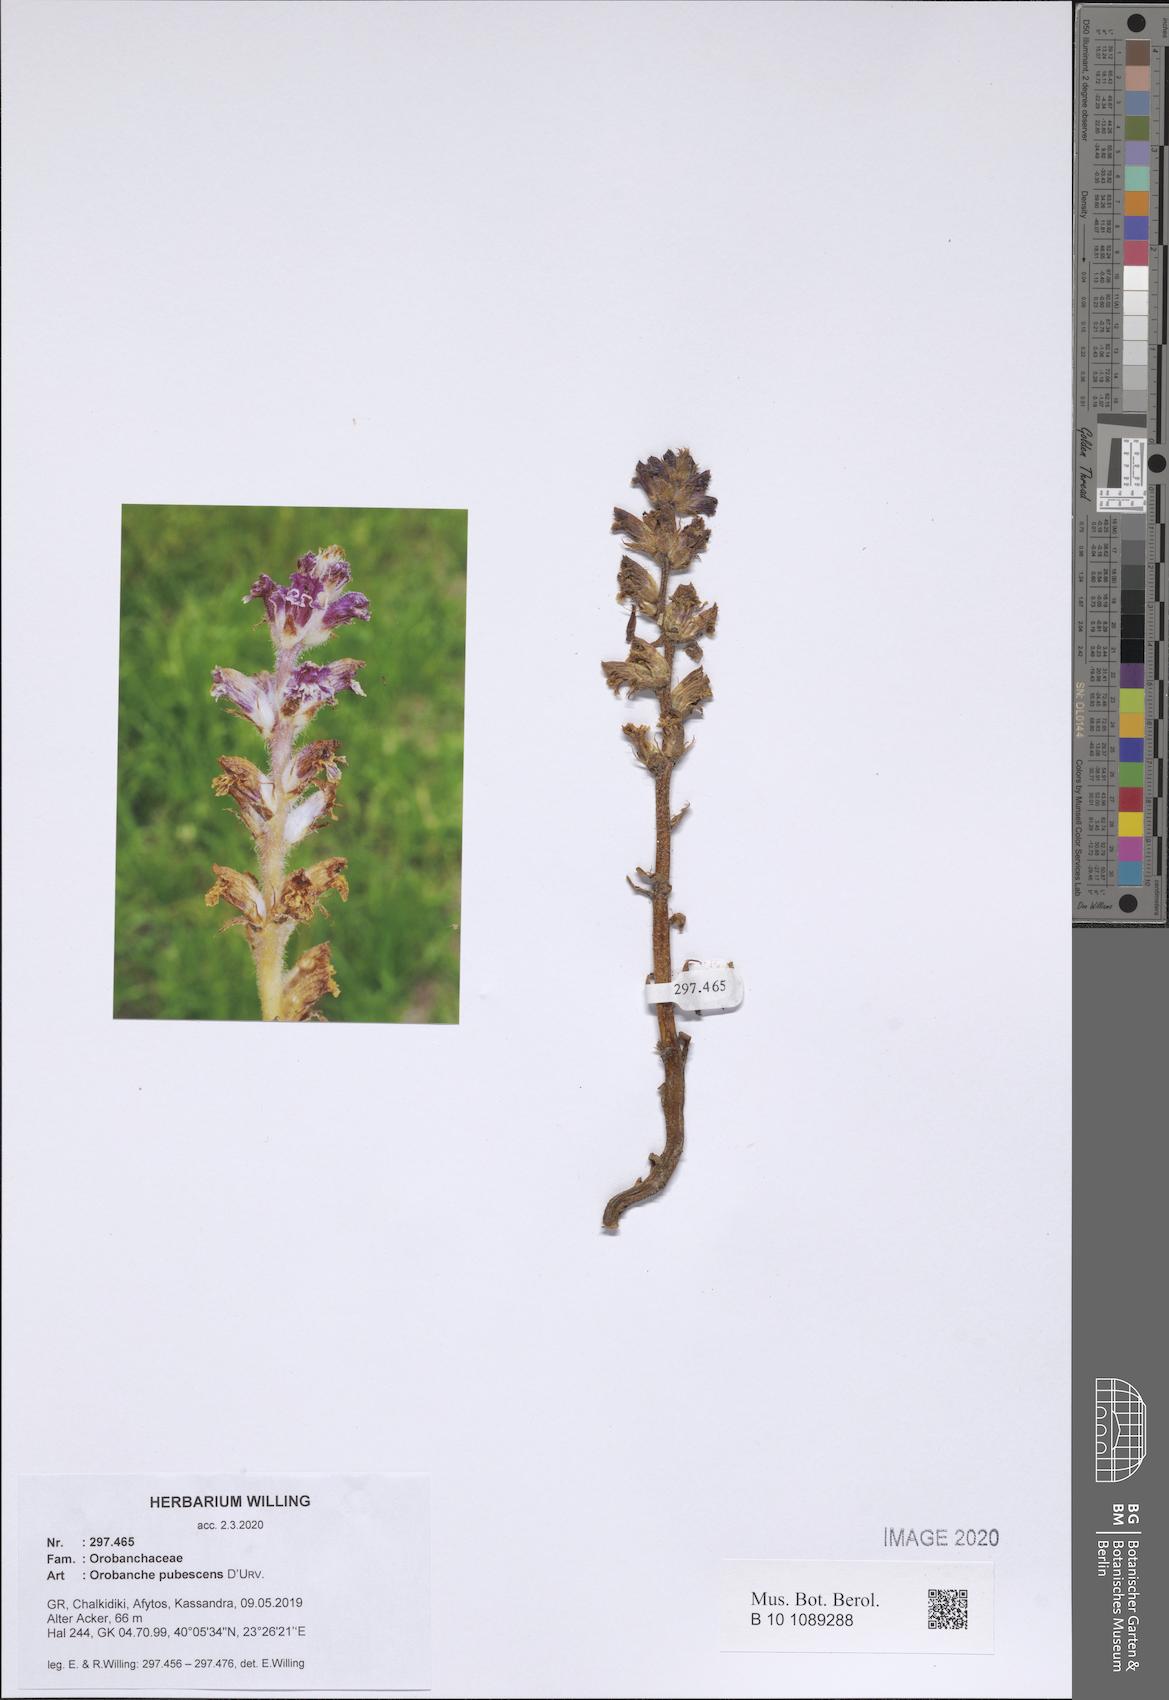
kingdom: Plantae
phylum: Tracheophyta
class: Magnoliopsida
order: Lamiales
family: Orobanchaceae
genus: Orobanche
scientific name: Orobanche pubescens
